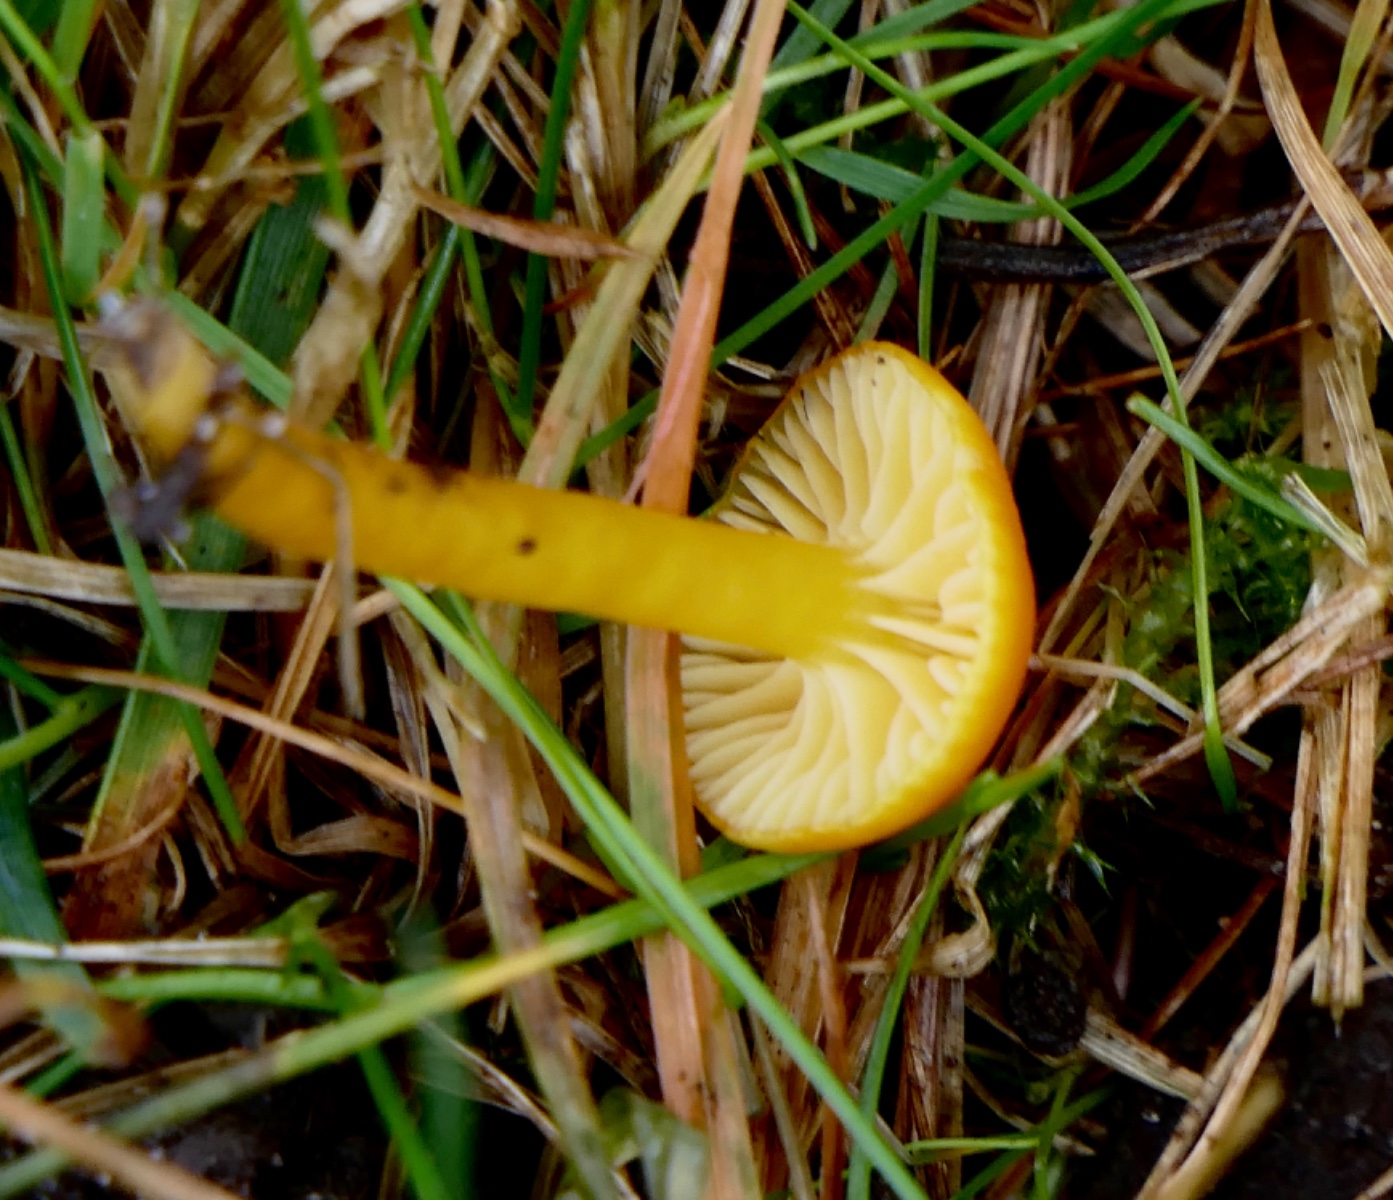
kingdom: Fungi
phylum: Basidiomycota
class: Agaricomycetes
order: Agaricales
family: Hygrophoraceae
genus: Hygrocybe
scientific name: Hygrocybe ceracea
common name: voksgul vokshat
